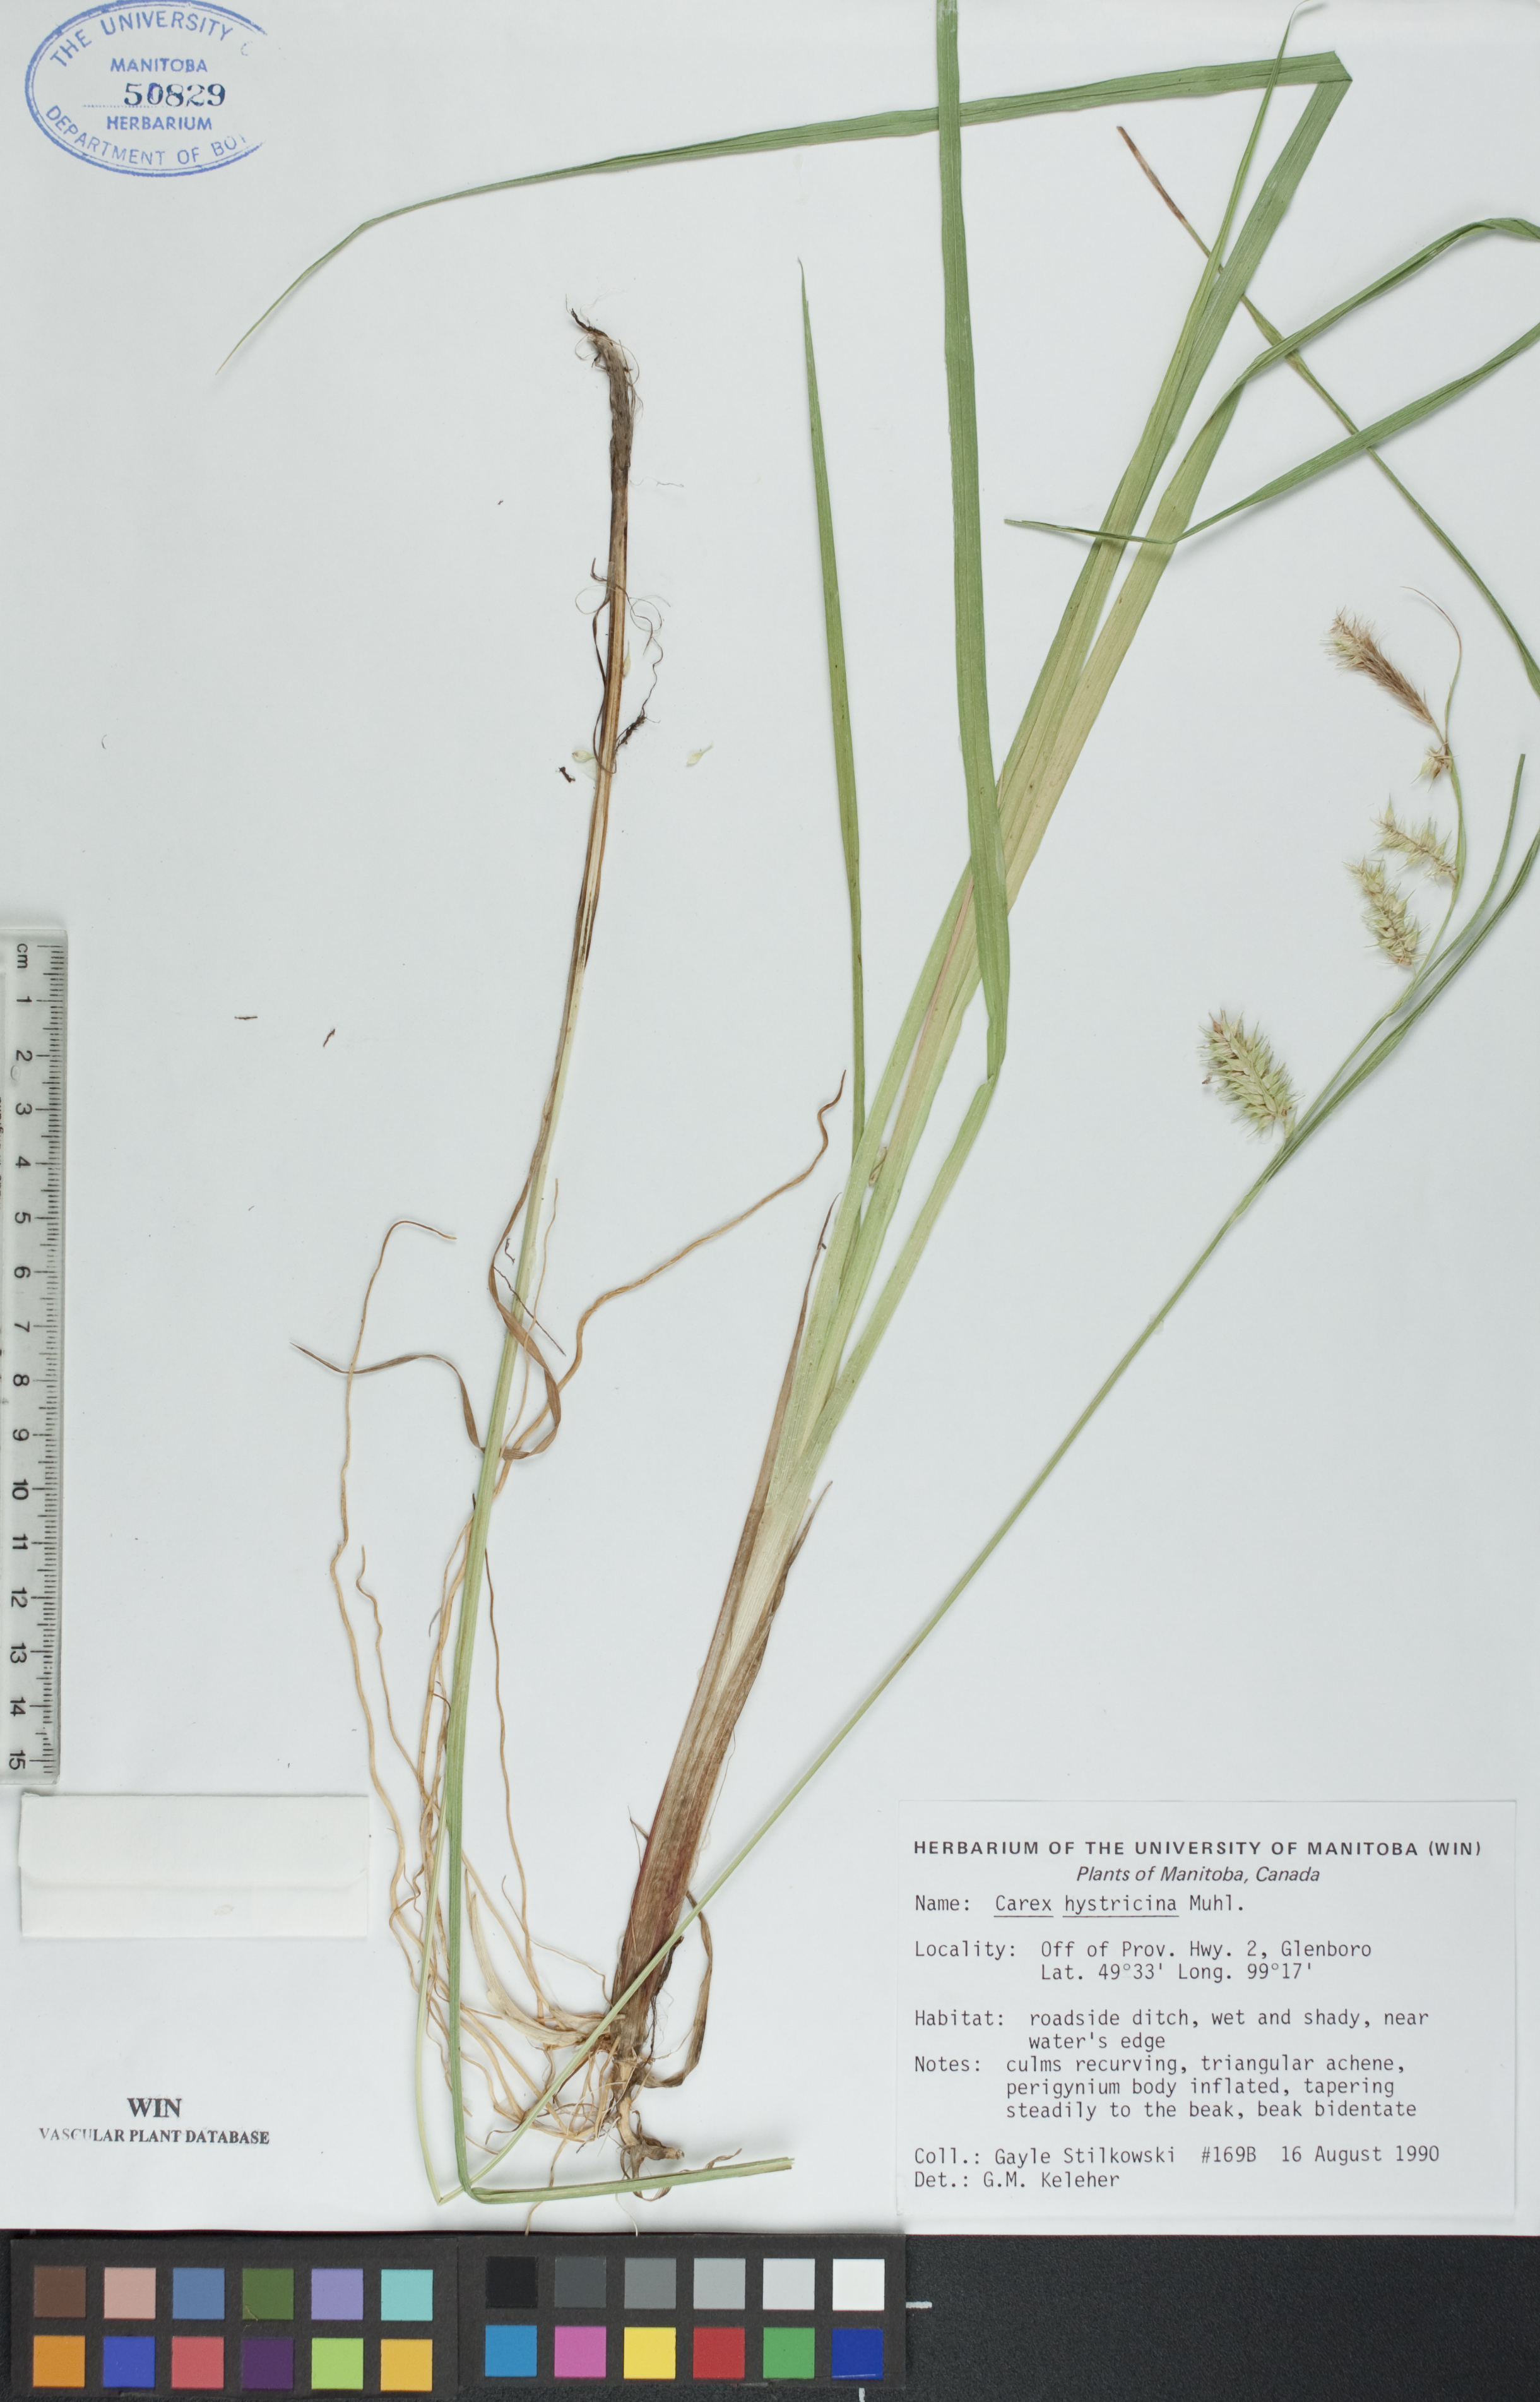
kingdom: Plantae
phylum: Tracheophyta
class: Liliopsida
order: Poales
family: Cyperaceae
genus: Carex
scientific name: Carex hystericina
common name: Bottlebrush sedge
